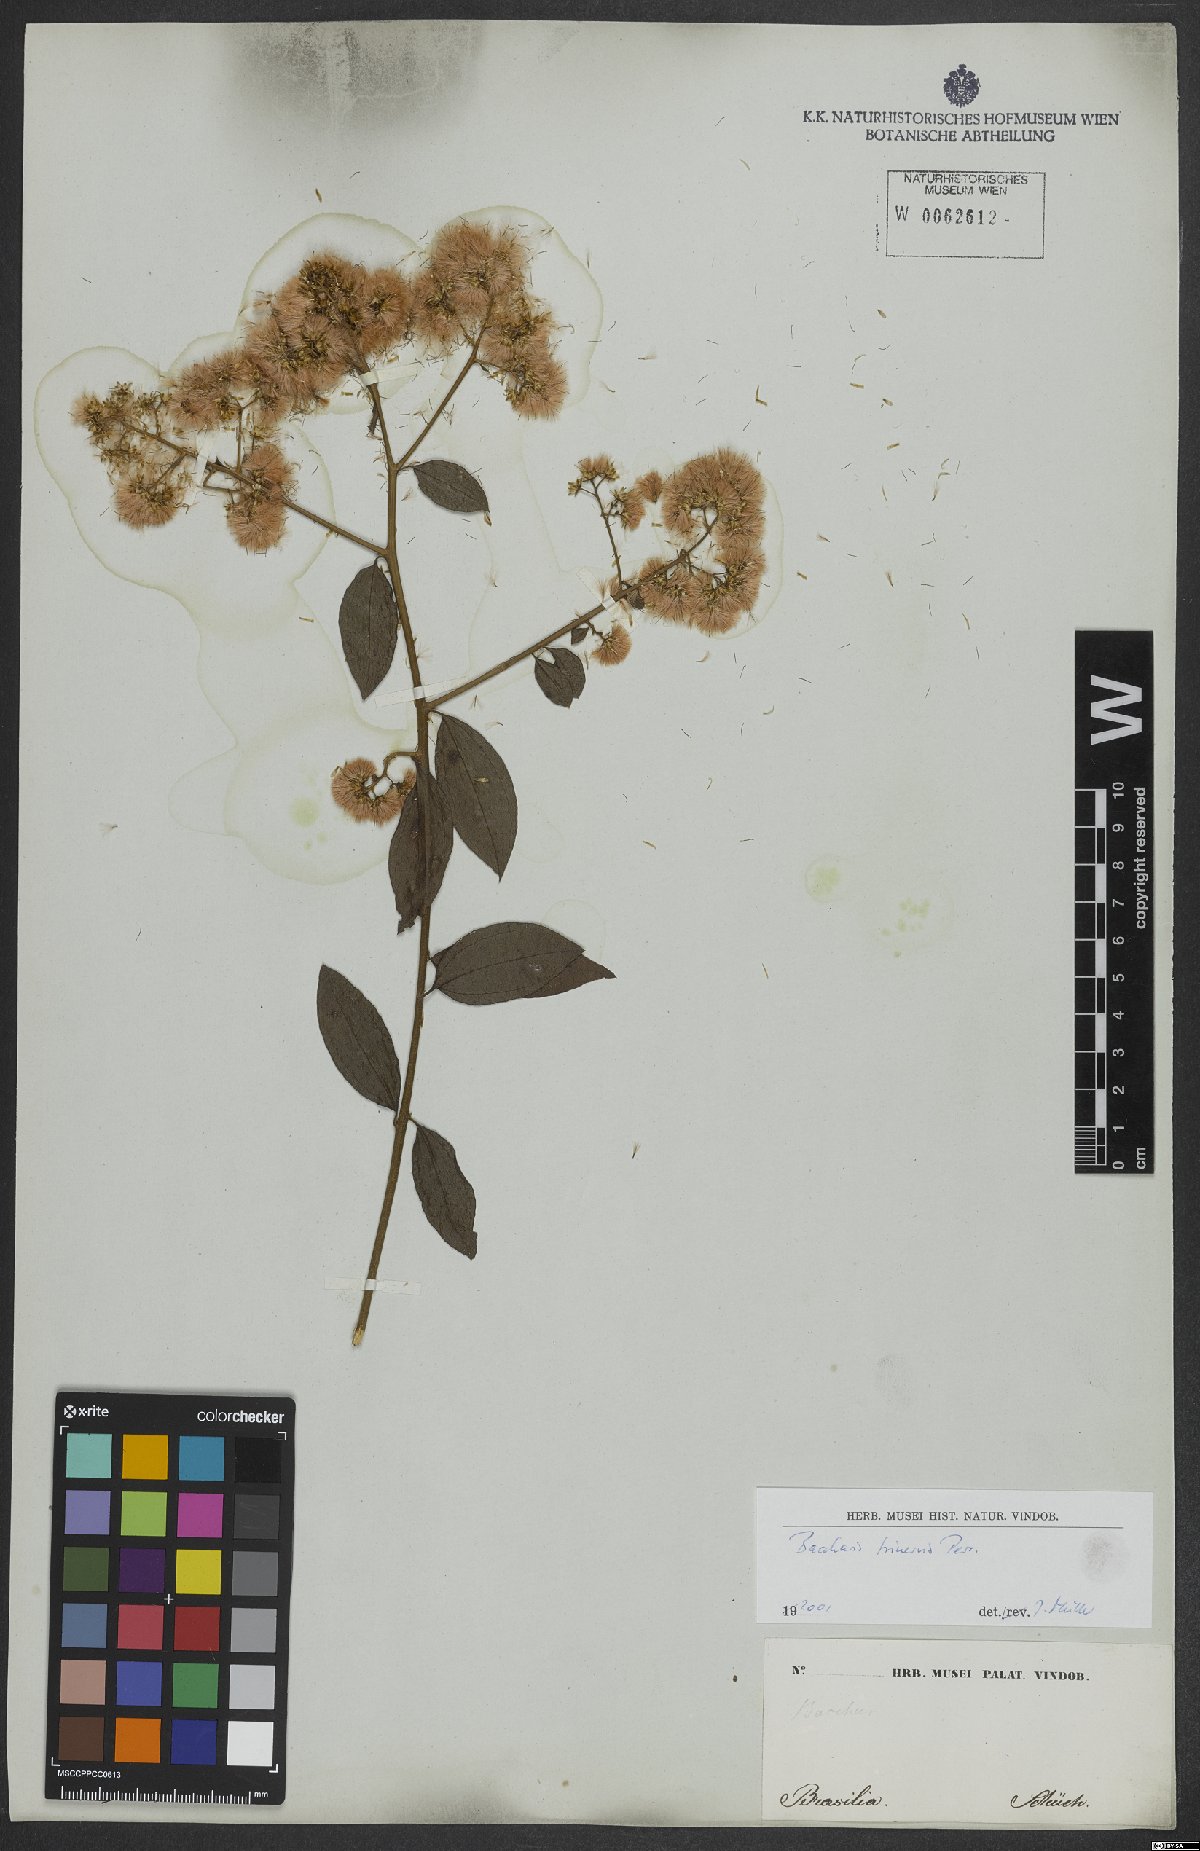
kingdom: Plantae
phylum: Tracheophyta
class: Magnoliopsida
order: Asterales
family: Asteraceae
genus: Baccharis
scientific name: Baccharis trinervis
